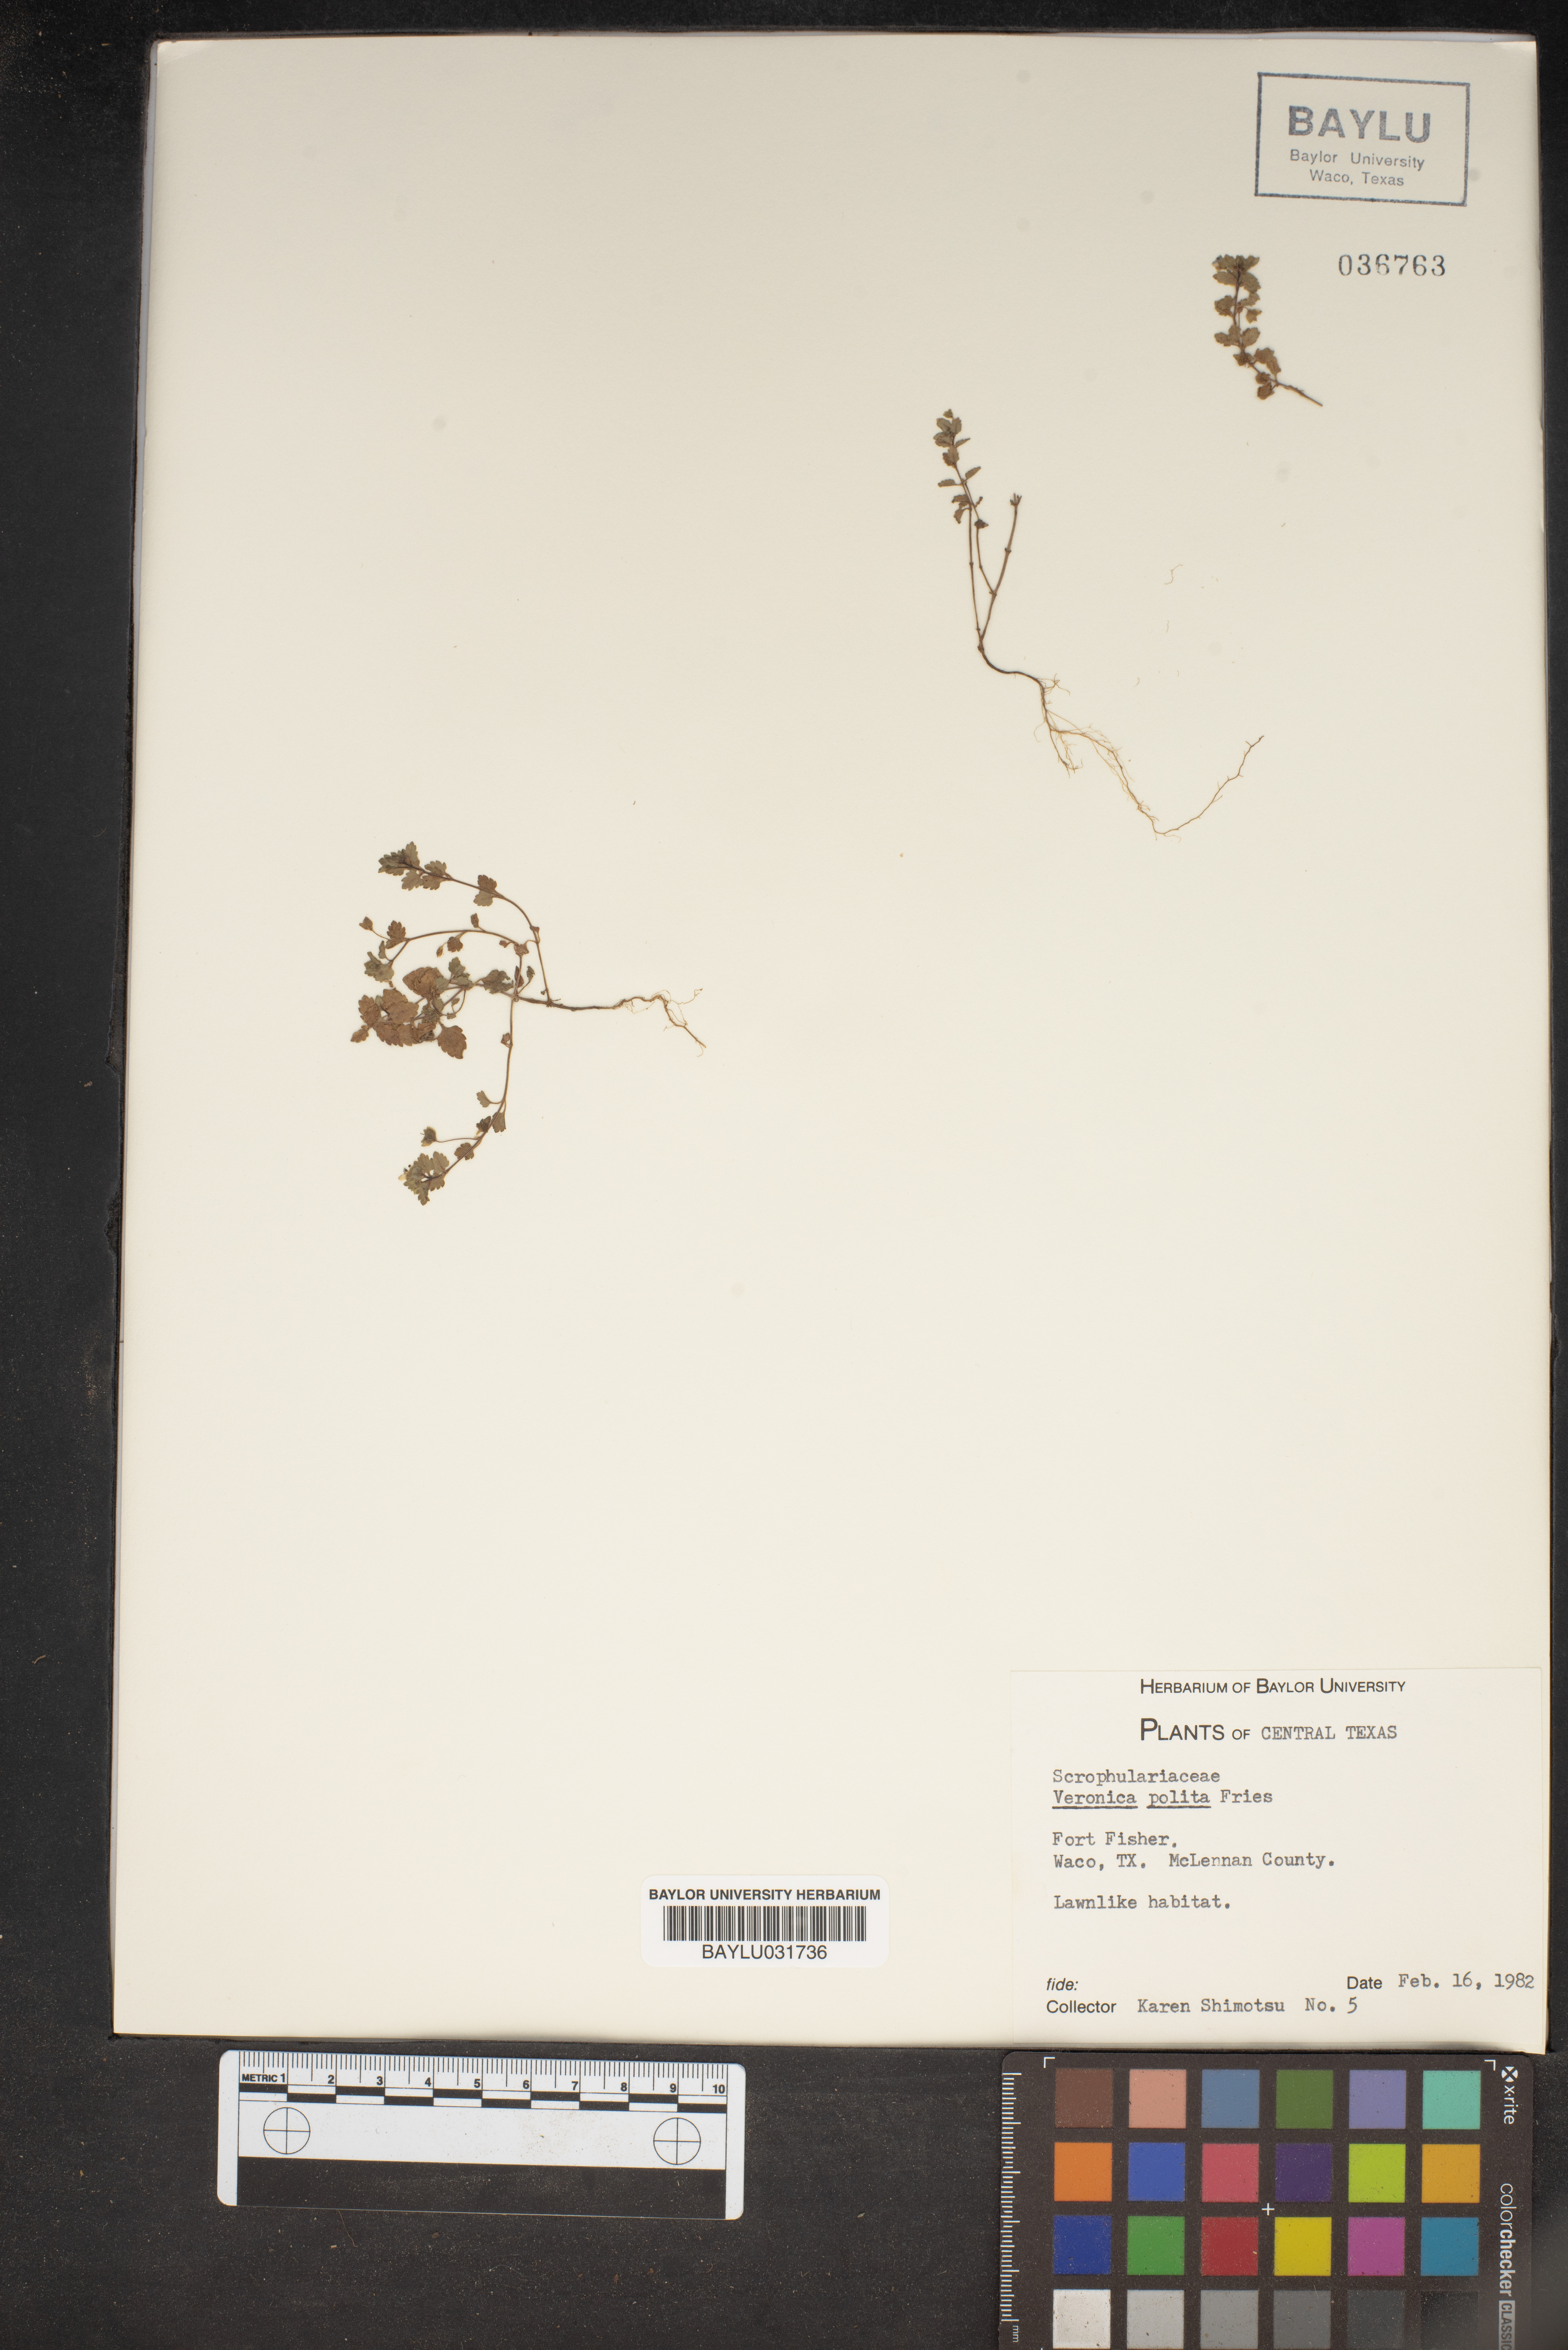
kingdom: Plantae
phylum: Tracheophyta
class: Magnoliopsida
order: Lamiales
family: Plantaginaceae
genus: Veronica
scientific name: Veronica polita
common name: Grey field-speedwell
